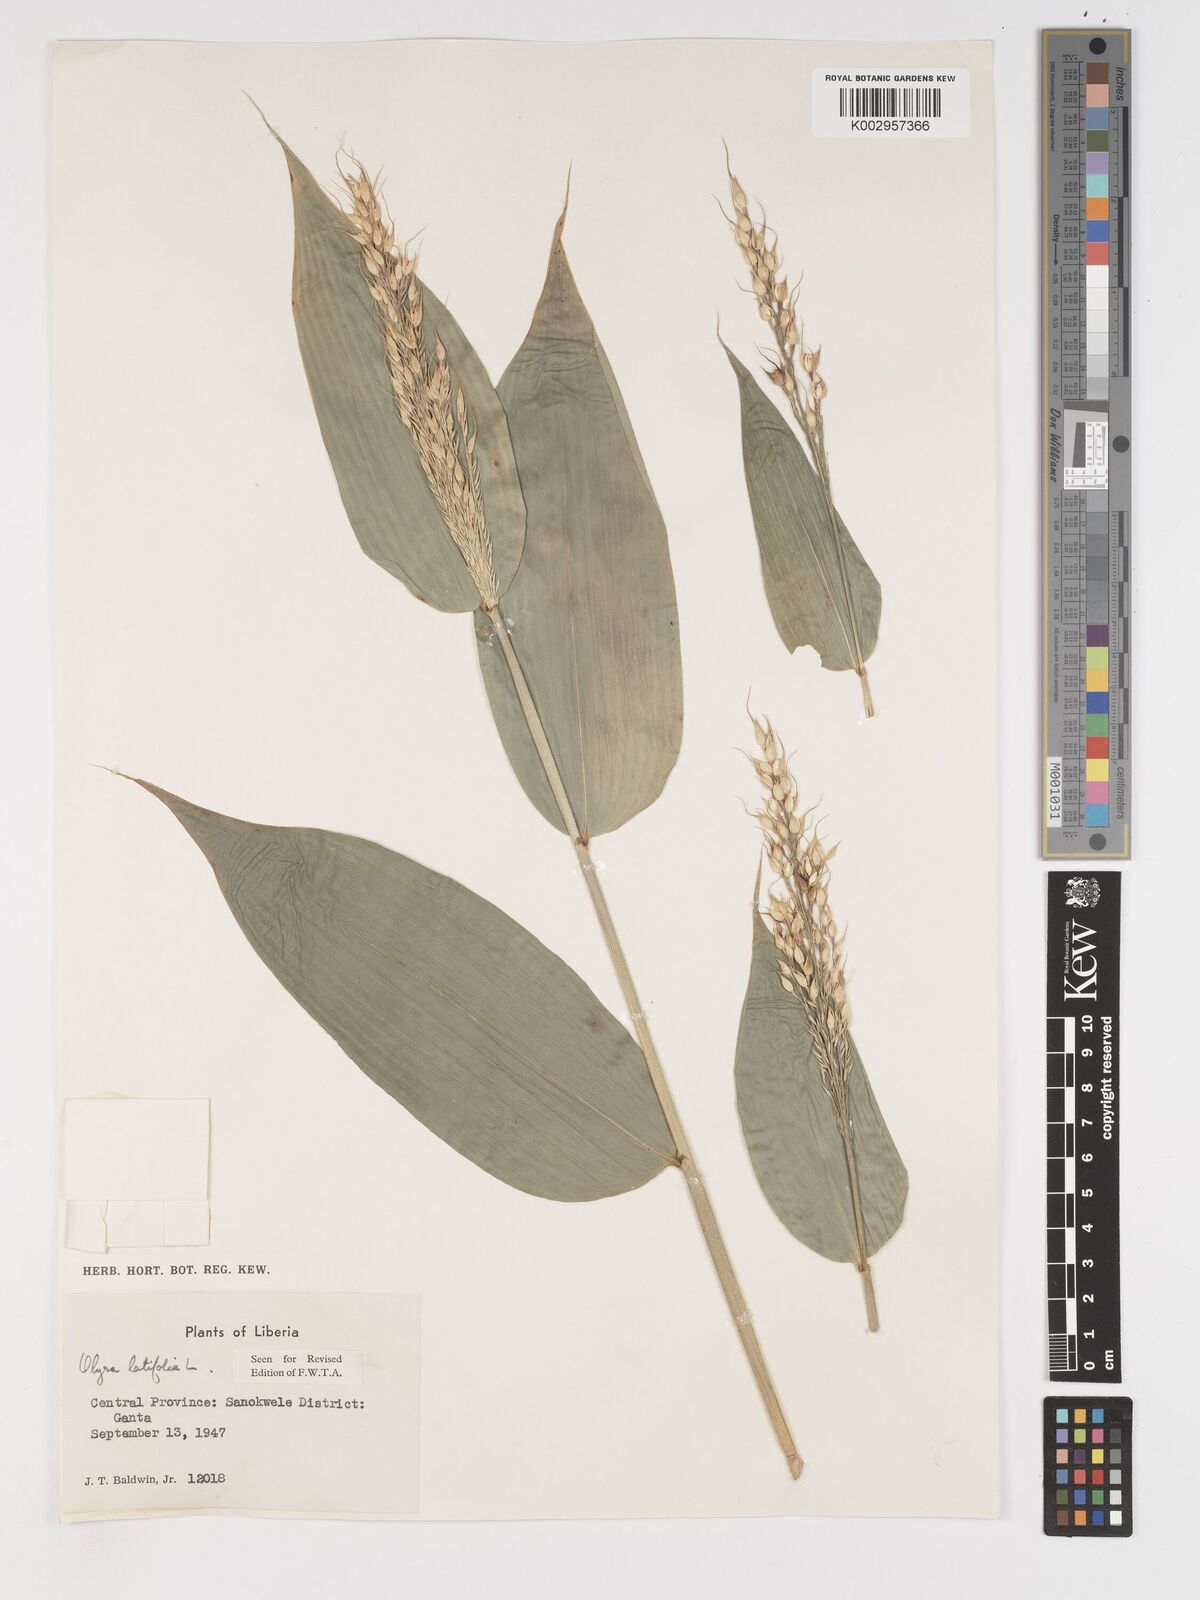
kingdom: Plantae
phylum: Tracheophyta
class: Liliopsida
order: Poales
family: Poaceae
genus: Olyra
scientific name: Olyra latifolia
